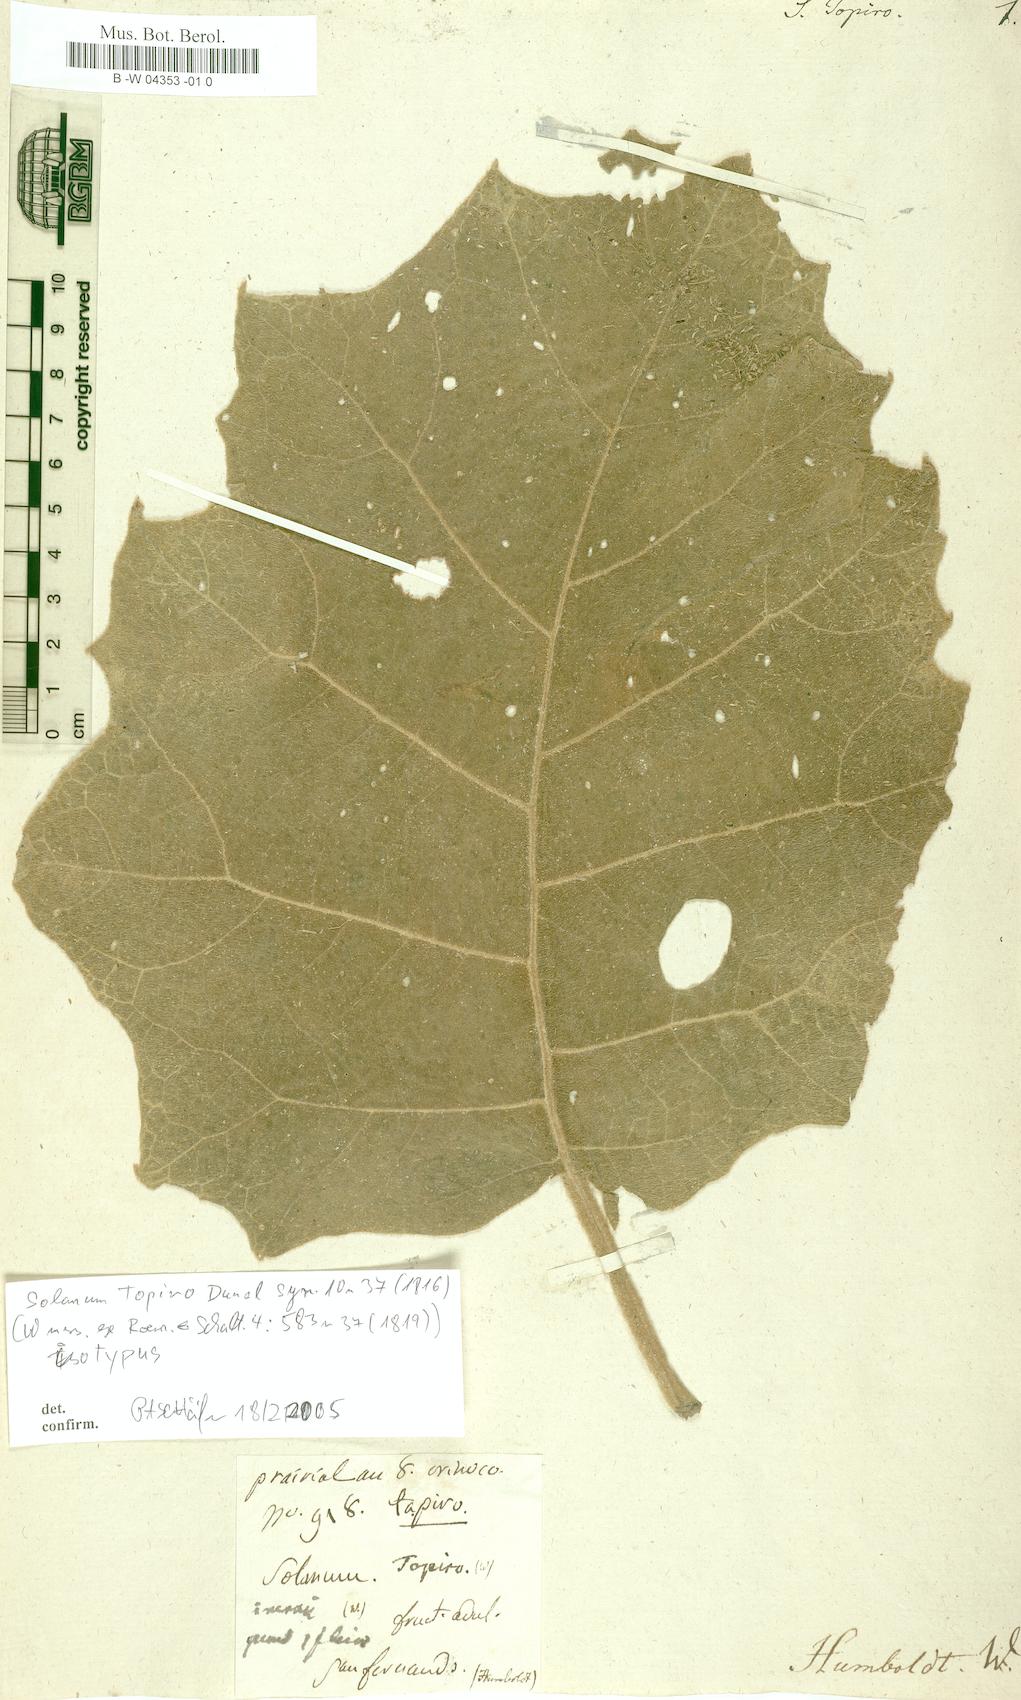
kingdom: Plantae
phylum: Tracheophyta
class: Magnoliopsida
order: Solanales
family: Solanaceae
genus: Solanum
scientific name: Solanum sessiliflorum
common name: Orinoco-apple
